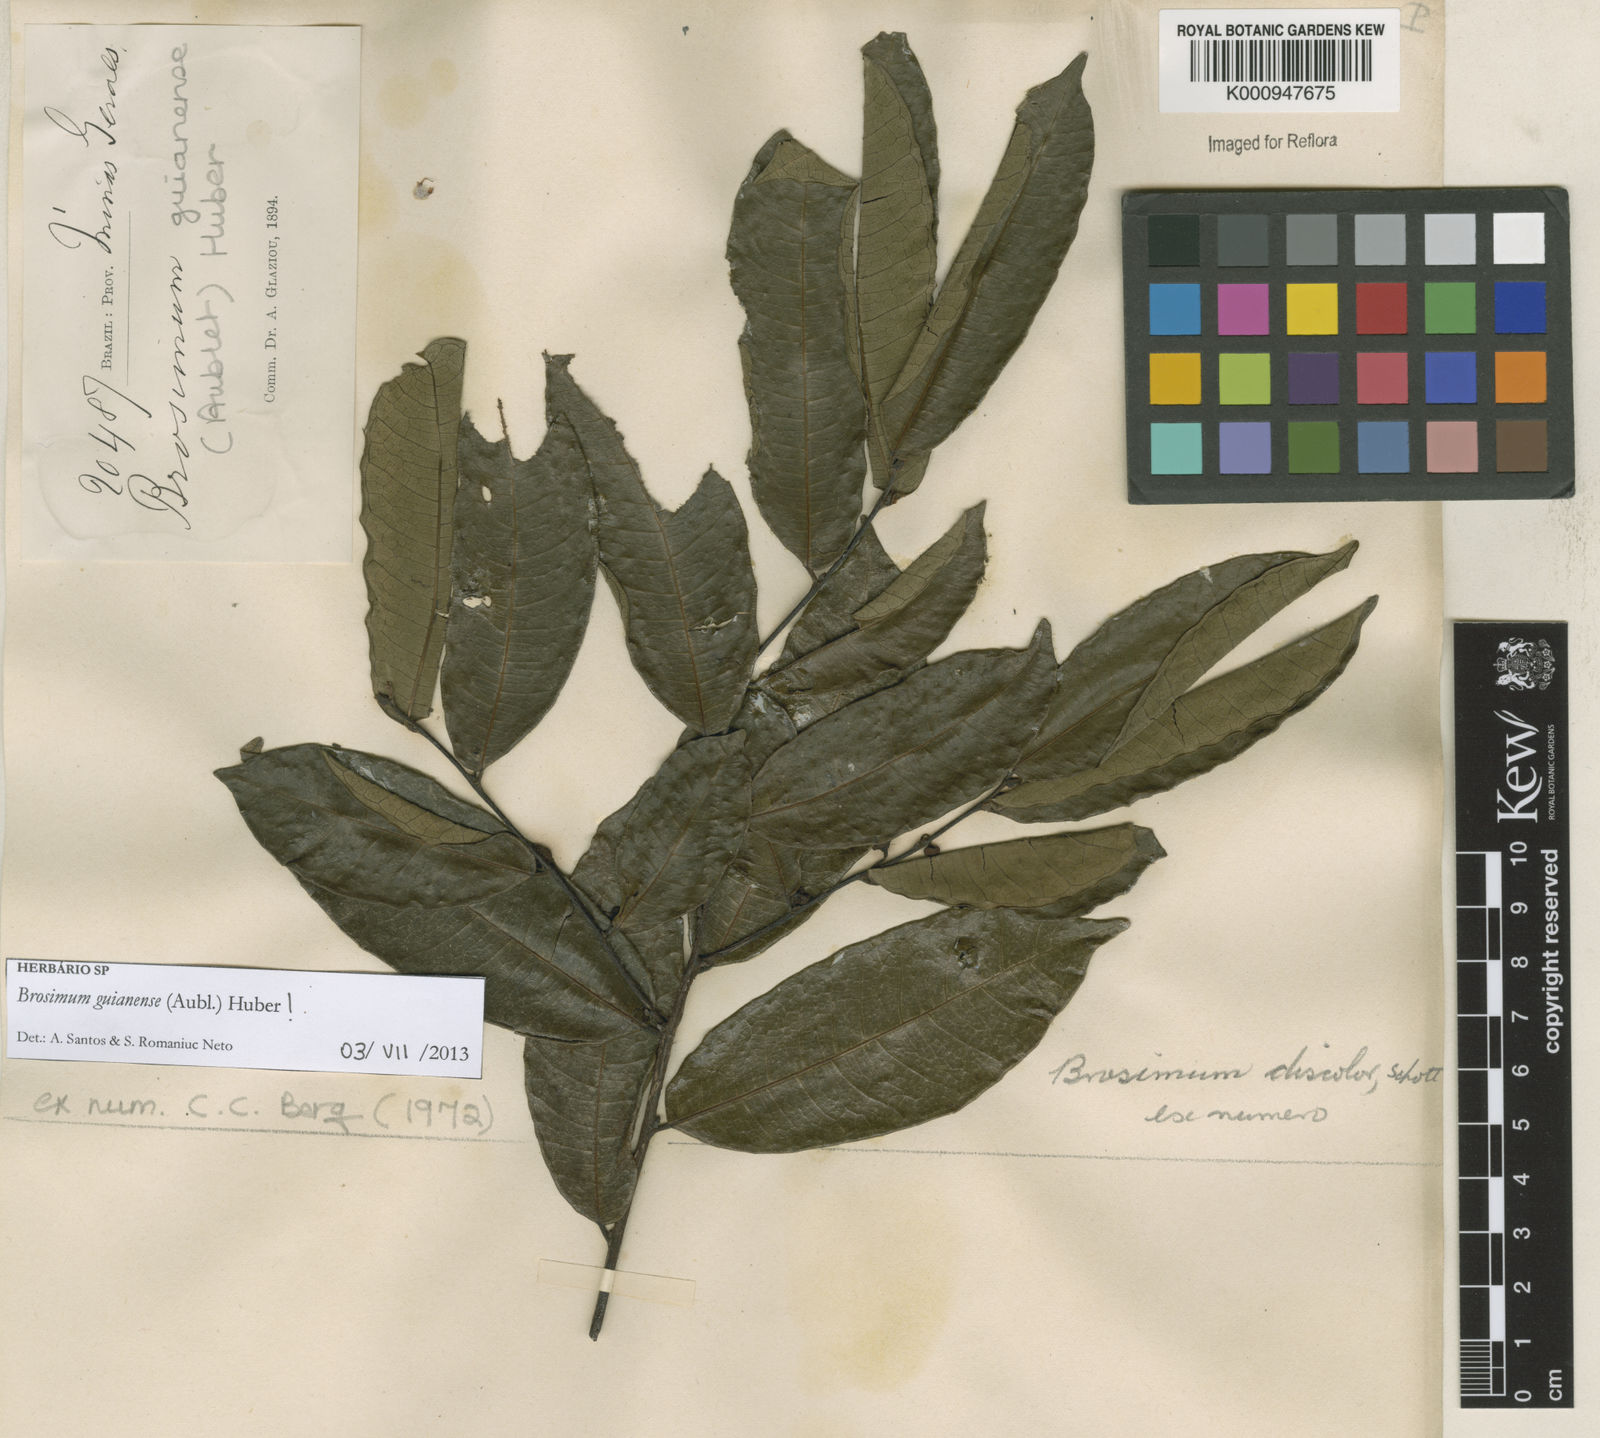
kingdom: Plantae
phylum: Tracheophyta
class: Magnoliopsida
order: Rosales
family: Moraceae
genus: Brosimum
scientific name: Brosimum
